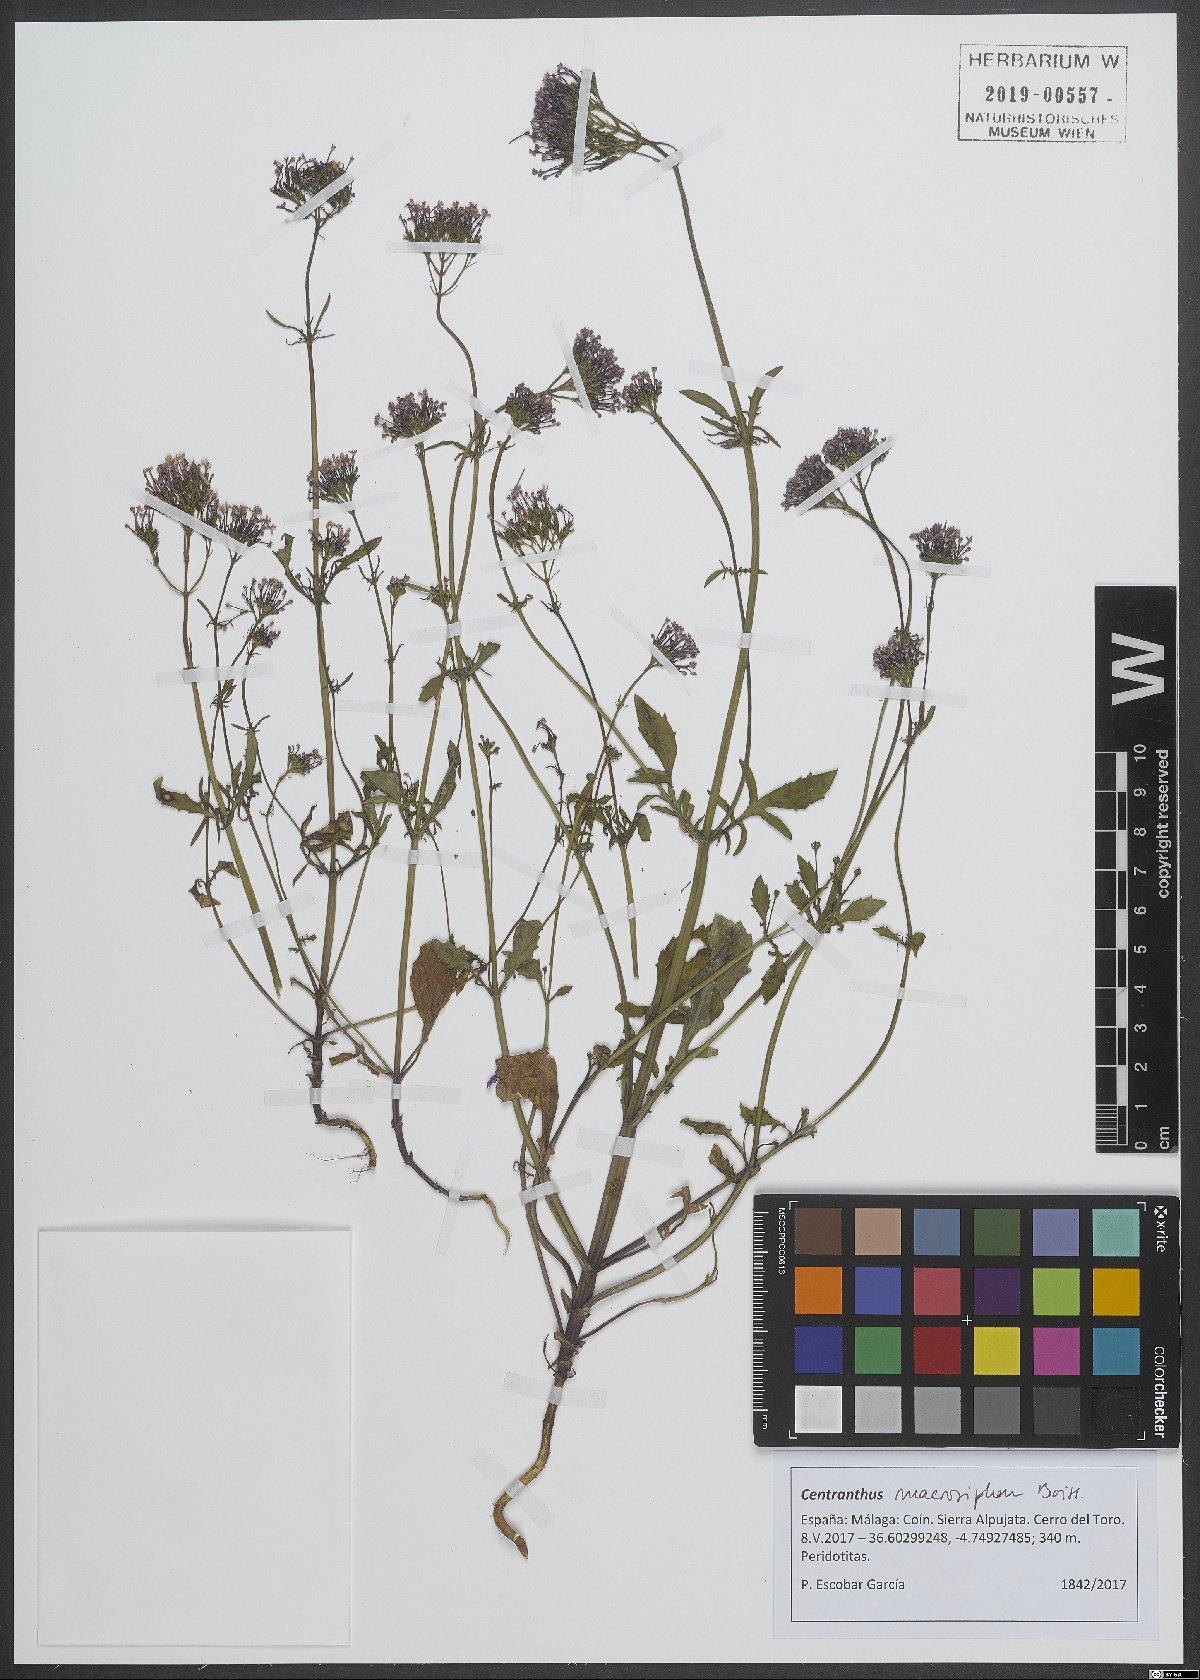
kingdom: Plantae
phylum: Tracheophyta
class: Magnoliopsida
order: Dipsacales
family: Caprifoliaceae
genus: Centranthus
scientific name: Centranthus macrosiphon
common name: Spanish-valerian
